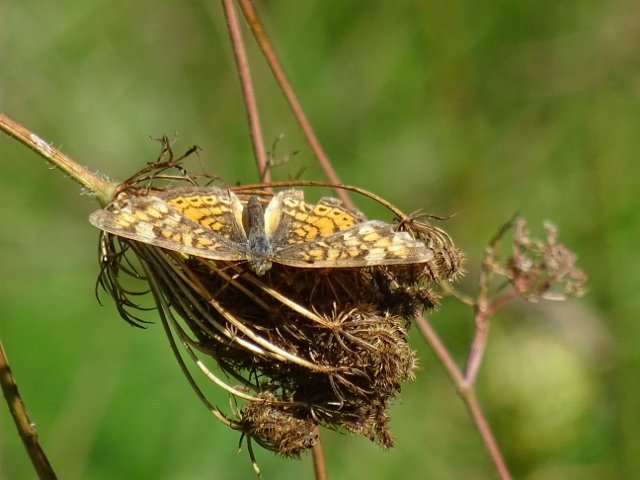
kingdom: Animalia
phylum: Arthropoda
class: Insecta
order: Lepidoptera
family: Nymphalidae
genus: Phyciodes
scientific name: Phyciodes
